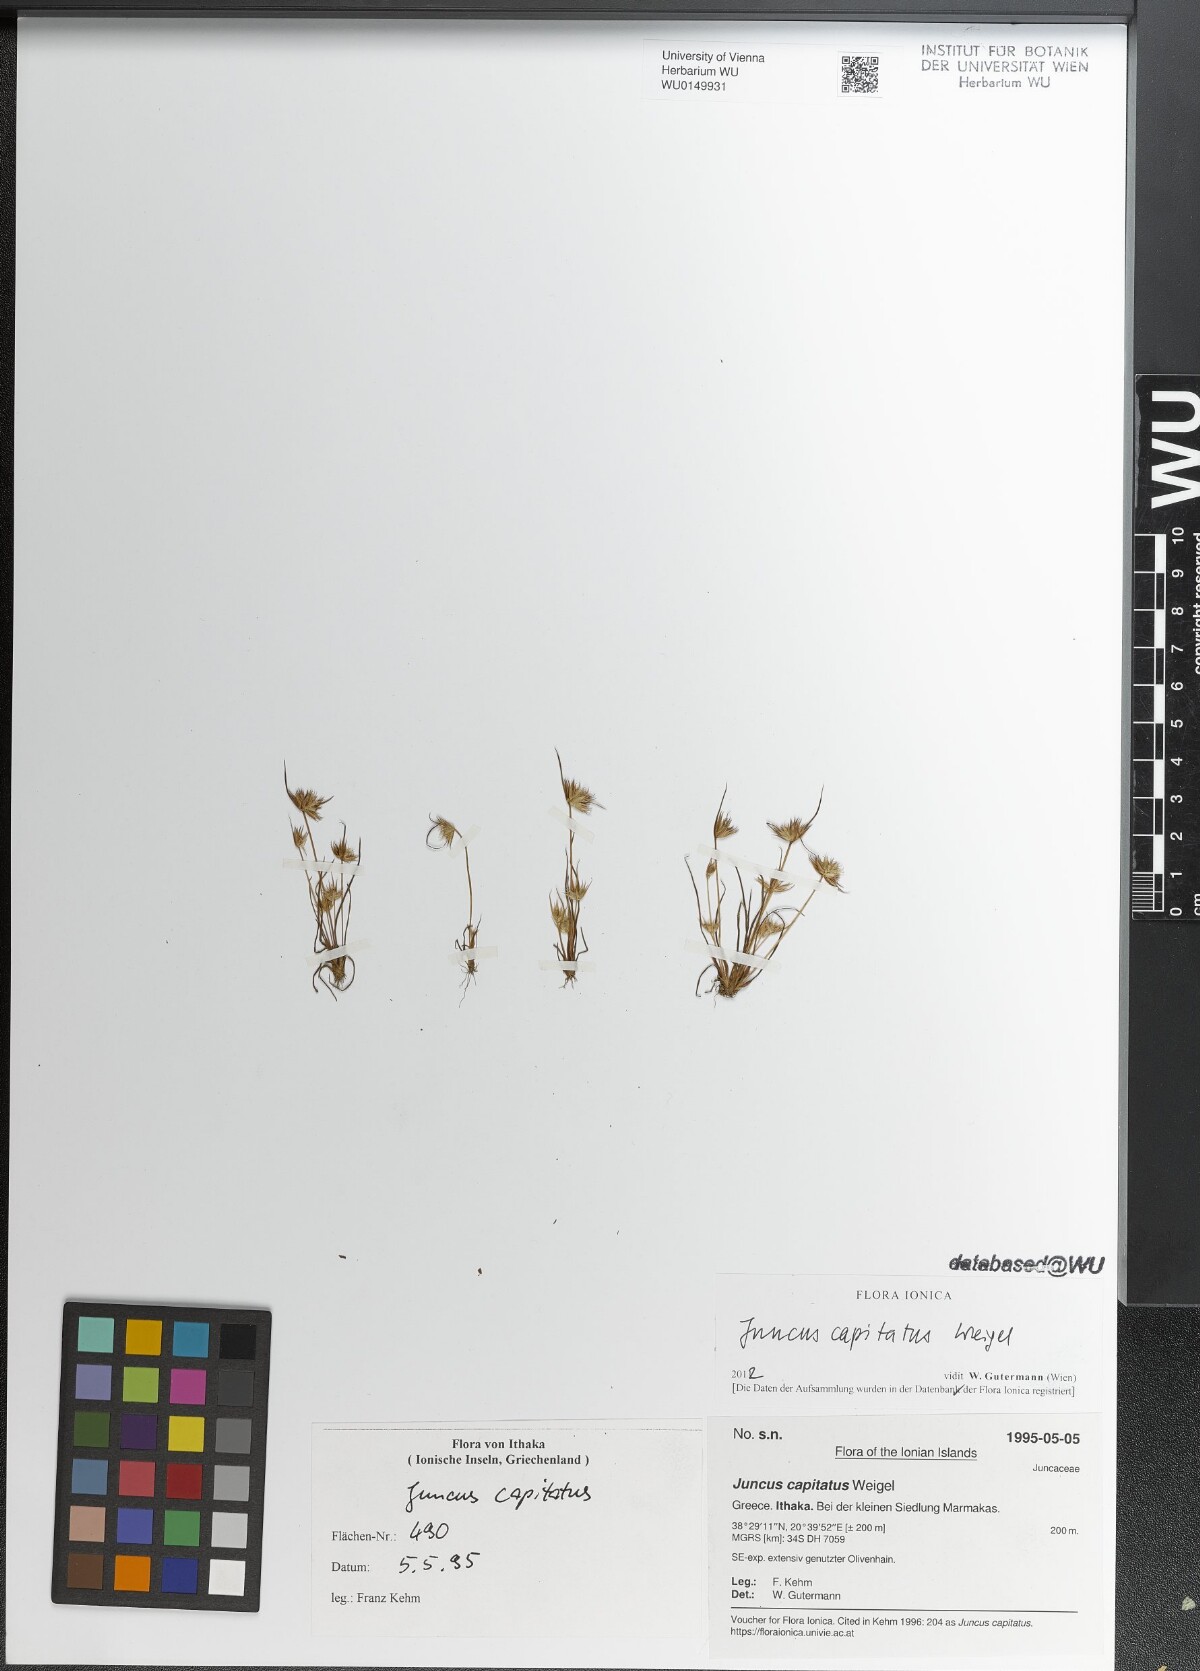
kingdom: Plantae
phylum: Tracheophyta
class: Liliopsida
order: Poales
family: Juncaceae
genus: Juncus
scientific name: Juncus capitatus
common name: Dwarf rush
